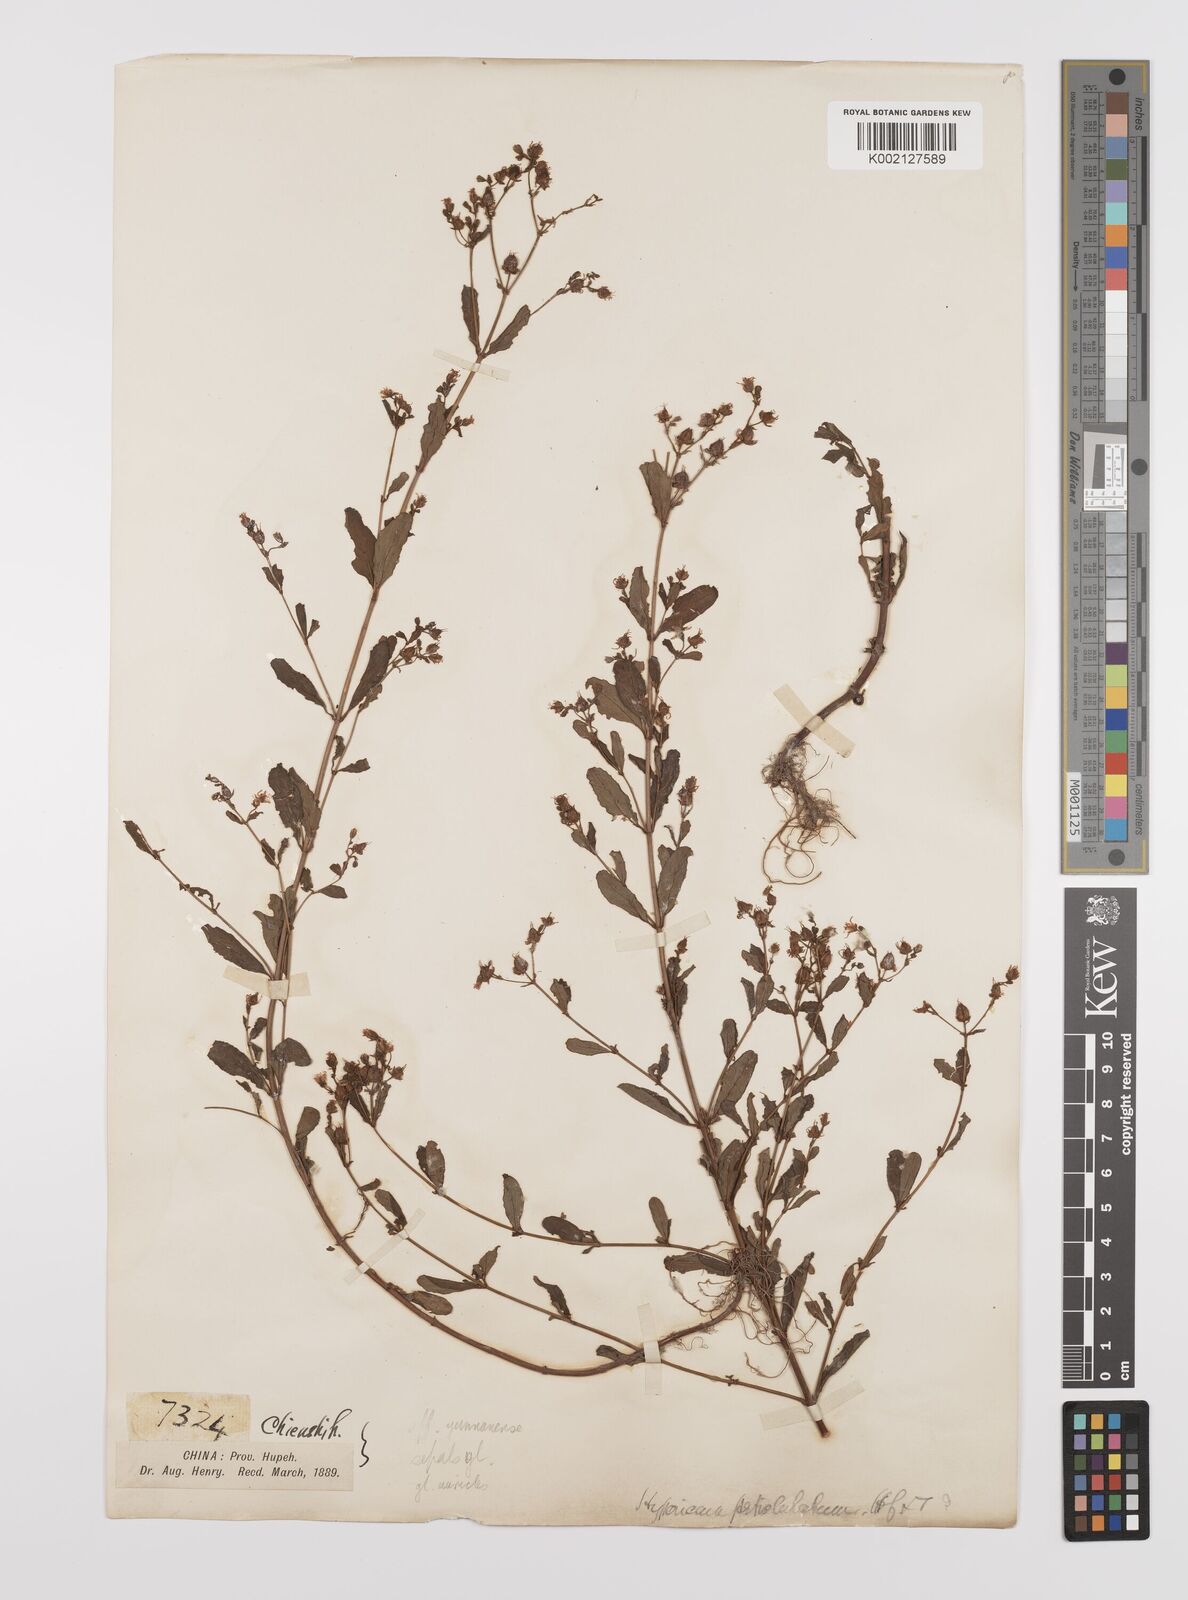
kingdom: Plantae
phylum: Tracheophyta
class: Magnoliopsida
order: Malpighiales
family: Hypericaceae
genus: Hypericum
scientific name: Hypericum petiolulatum
